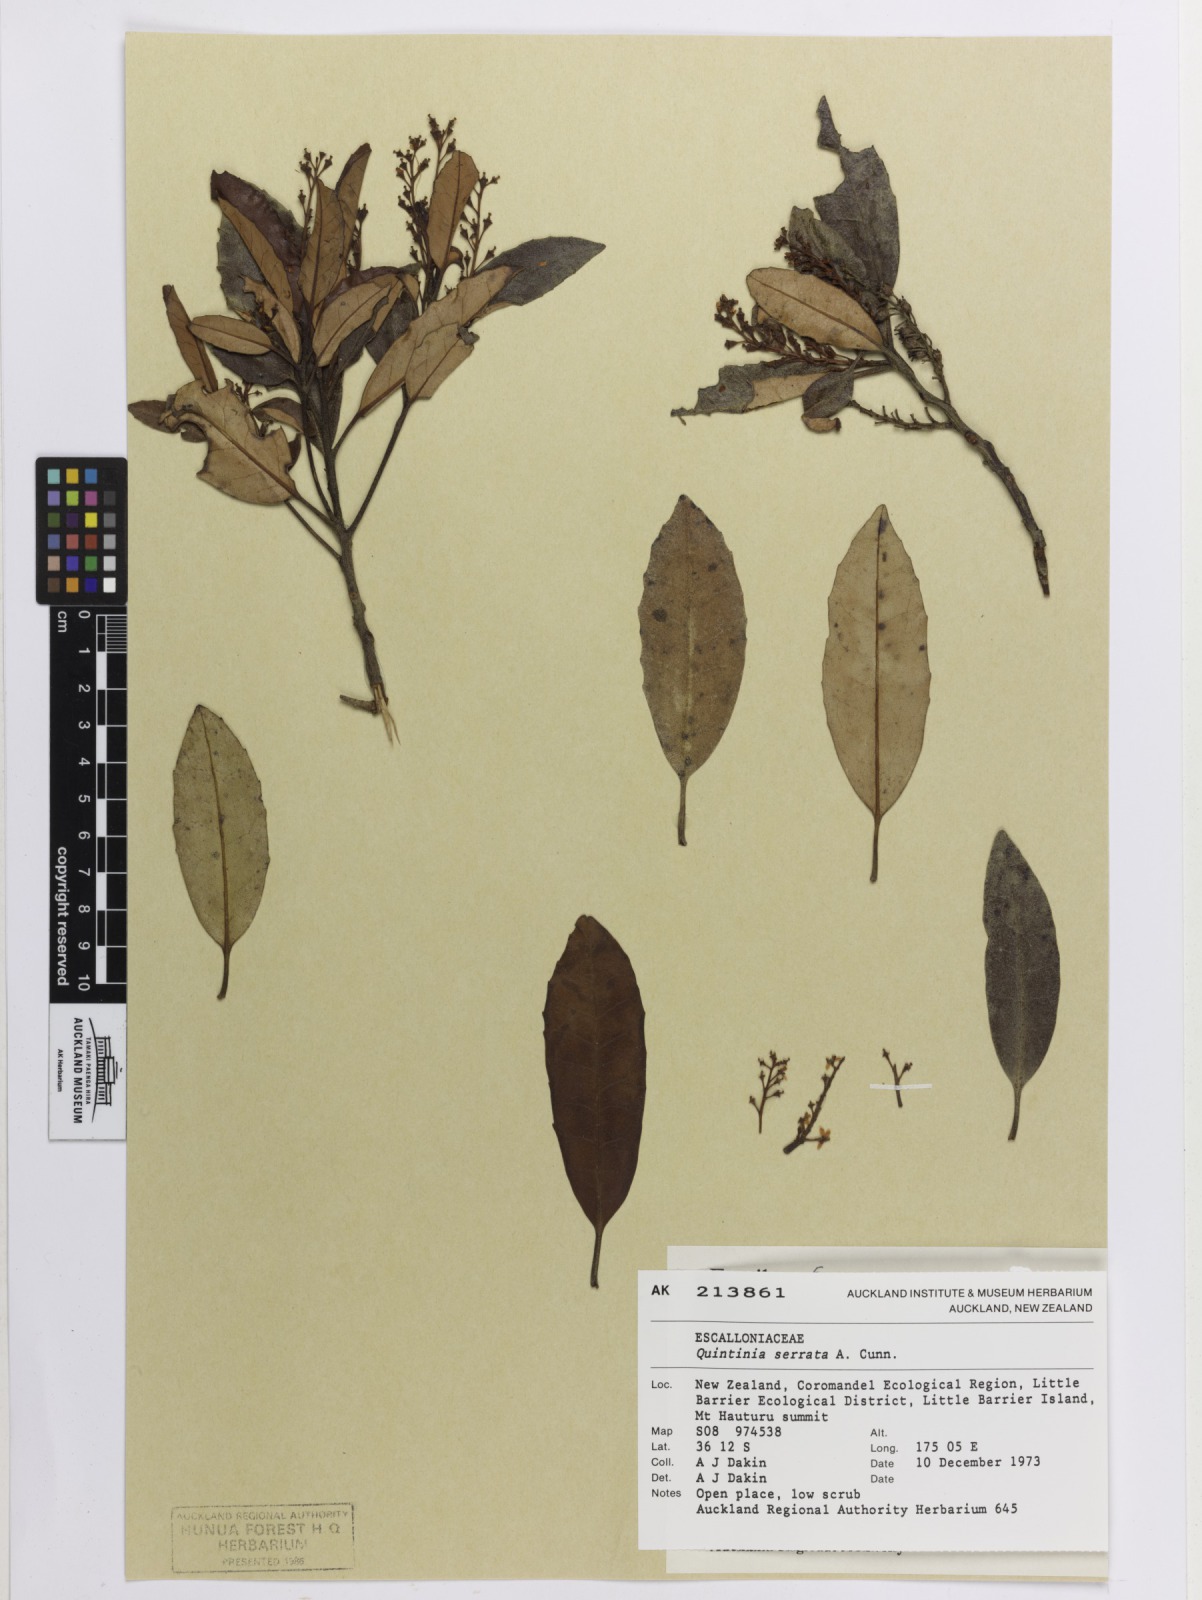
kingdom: Plantae
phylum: Tracheophyta
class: Magnoliopsida
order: Paracryphiales
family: Paracryphiaceae
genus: Quintinia
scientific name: Quintinia serrata
